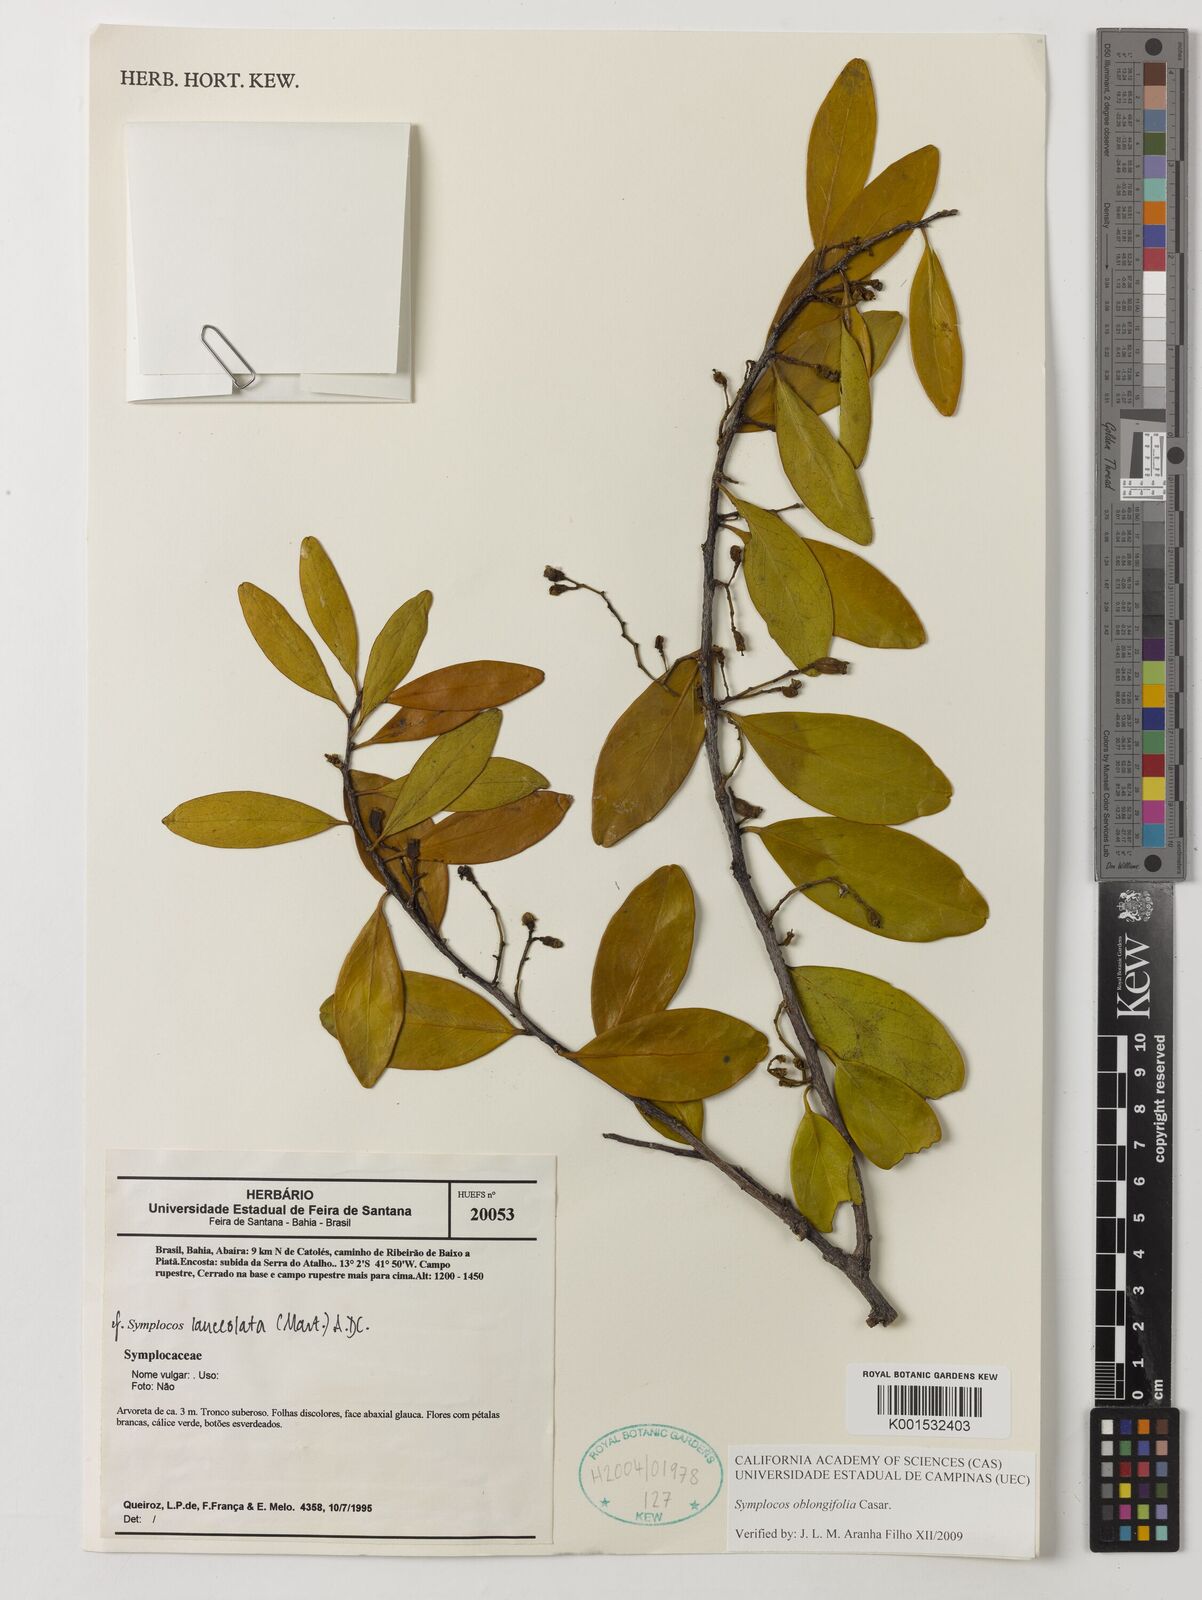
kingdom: Plantae
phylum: Tracheophyta
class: Magnoliopsida
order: Ericales
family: Symplocaceae
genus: Symplocos
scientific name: Symplocos oblongifolia
